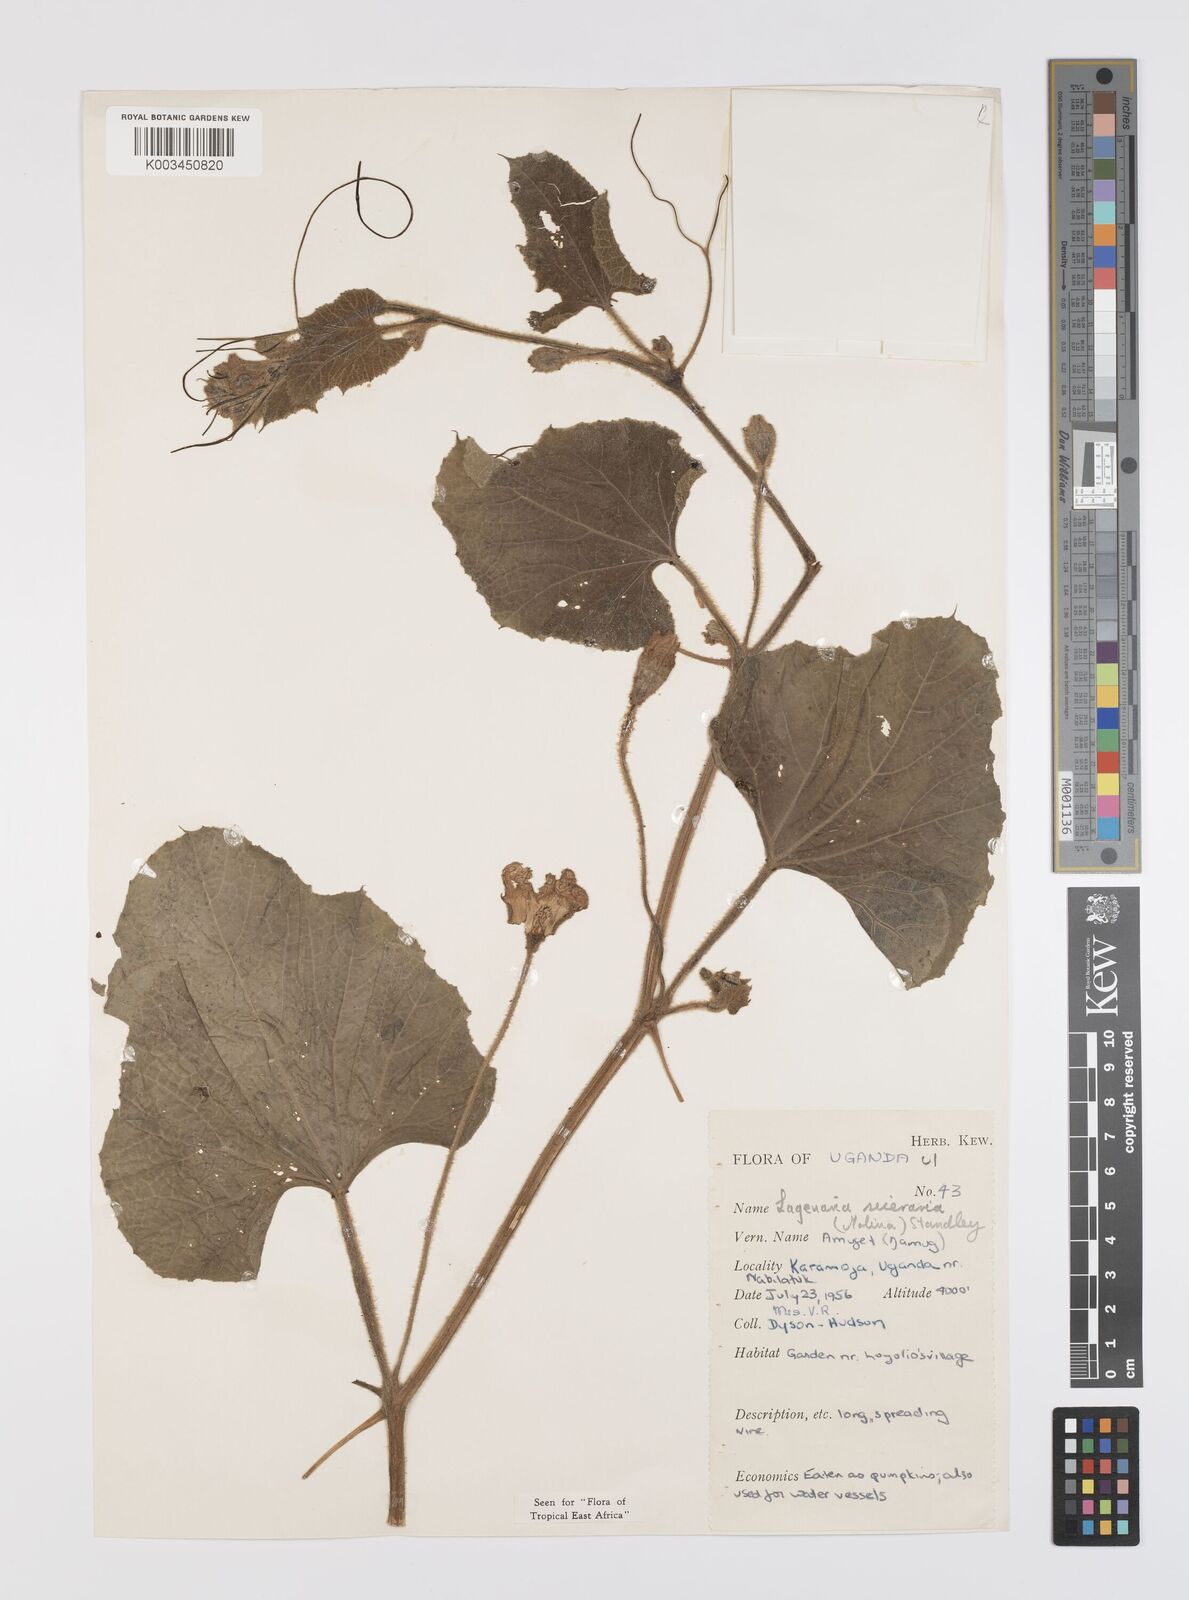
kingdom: Plantae
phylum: Tracheophyta
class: Magnoliopsida
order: Cucurbitales
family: Cucurbitaceae
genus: Lagenaria
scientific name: Lagenaria siceraria
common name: Bottle gourd
